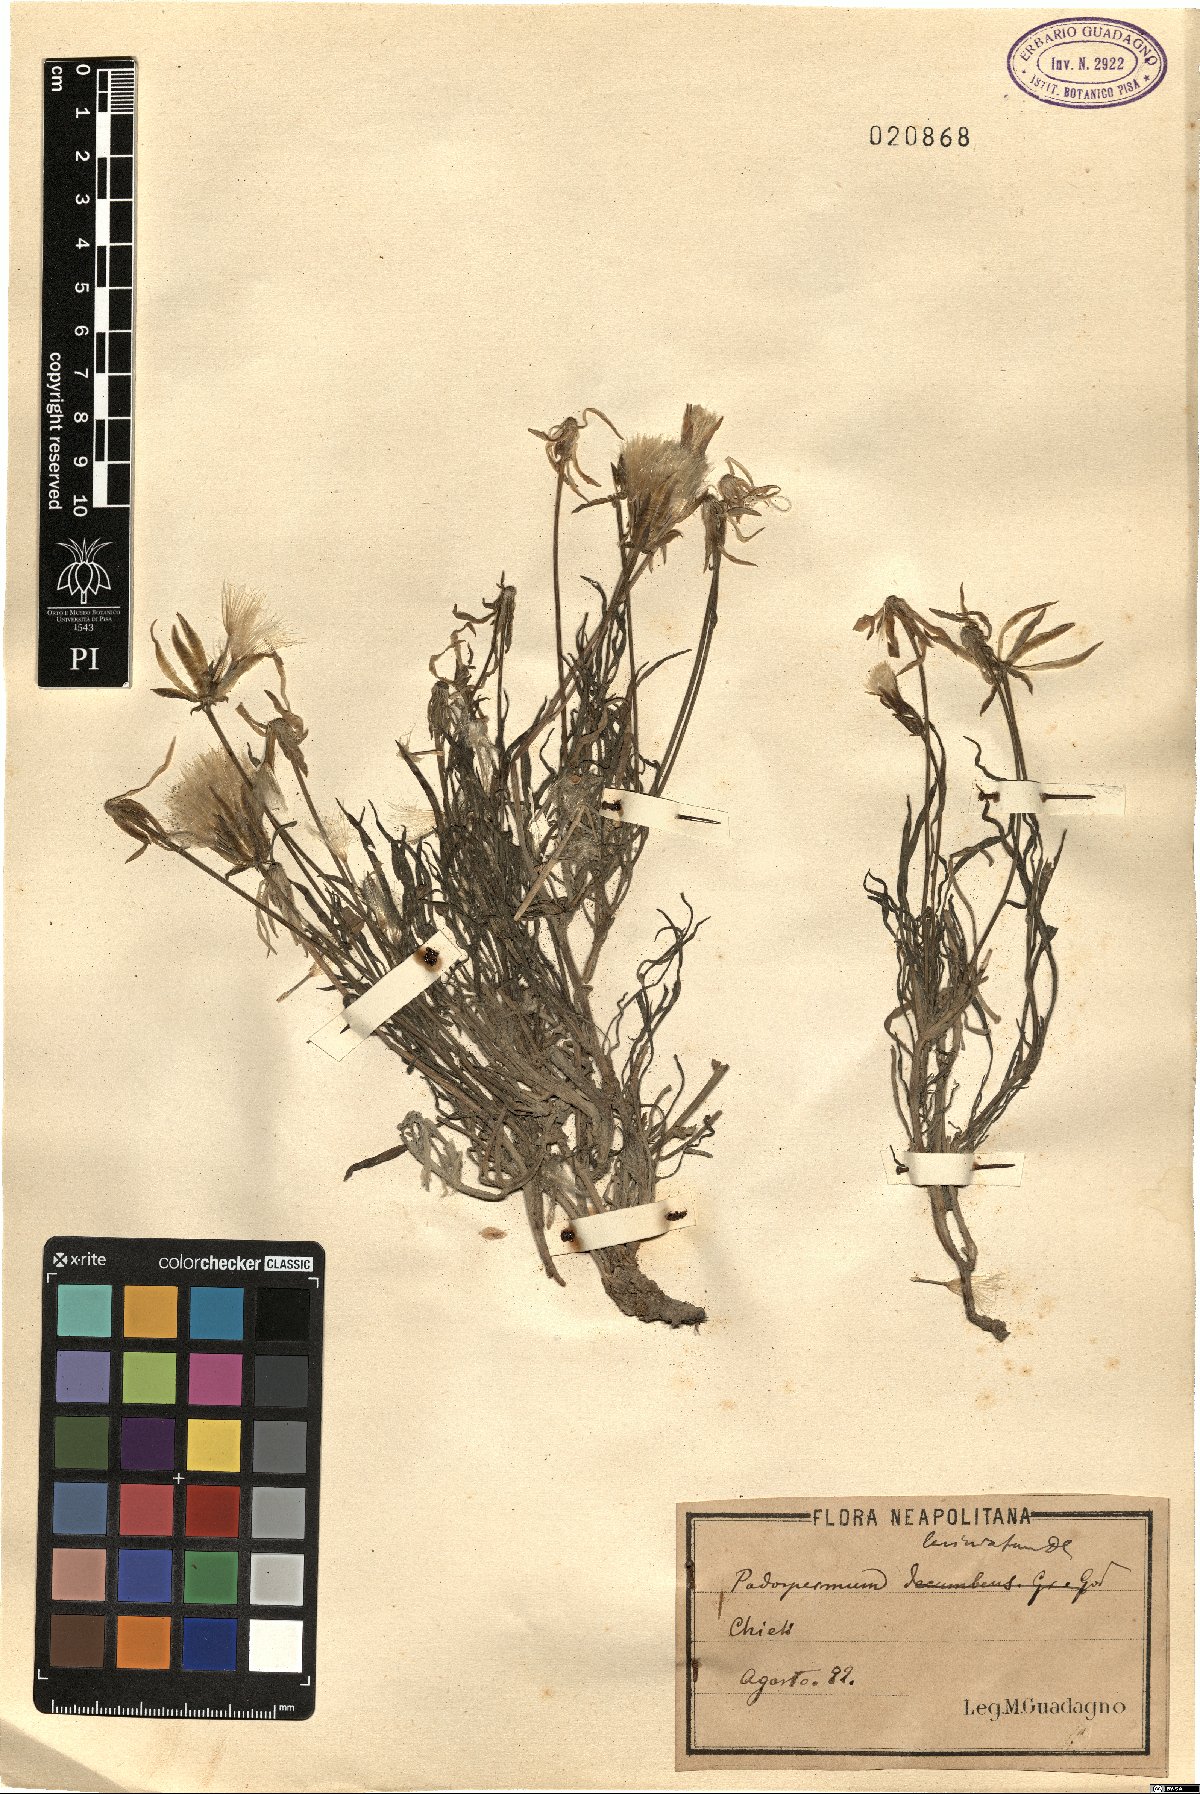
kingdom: Plantae
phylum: Tracheophyta
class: Magnoliopsida
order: Asterales
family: Asteraceae
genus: Scorzonera
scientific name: Scorzonera laciniata
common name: Cutleaf vipergrass
